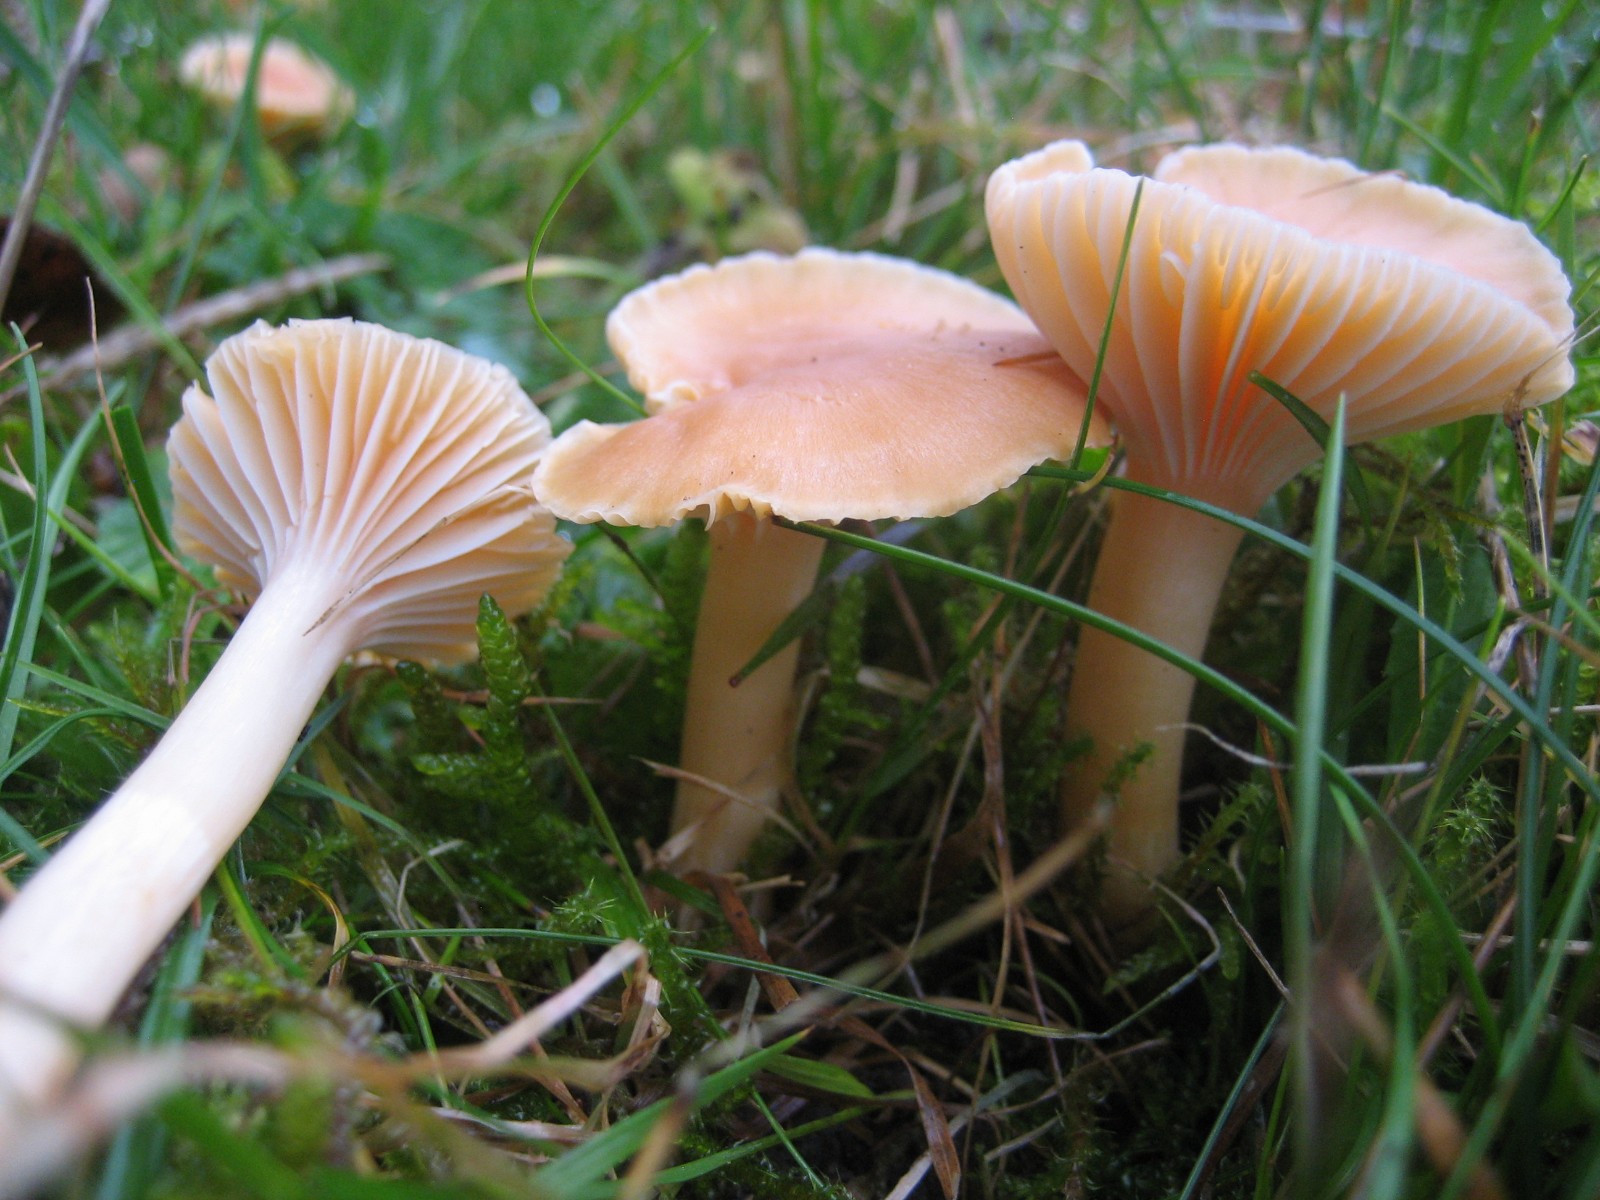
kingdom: Fungi
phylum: Basidiomycota
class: Agaricomycetes
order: Agaricales
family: Hygrophoraceae
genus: Cuphophyllus
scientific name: Cuphophyllus pratensis
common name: eng-vokshat
